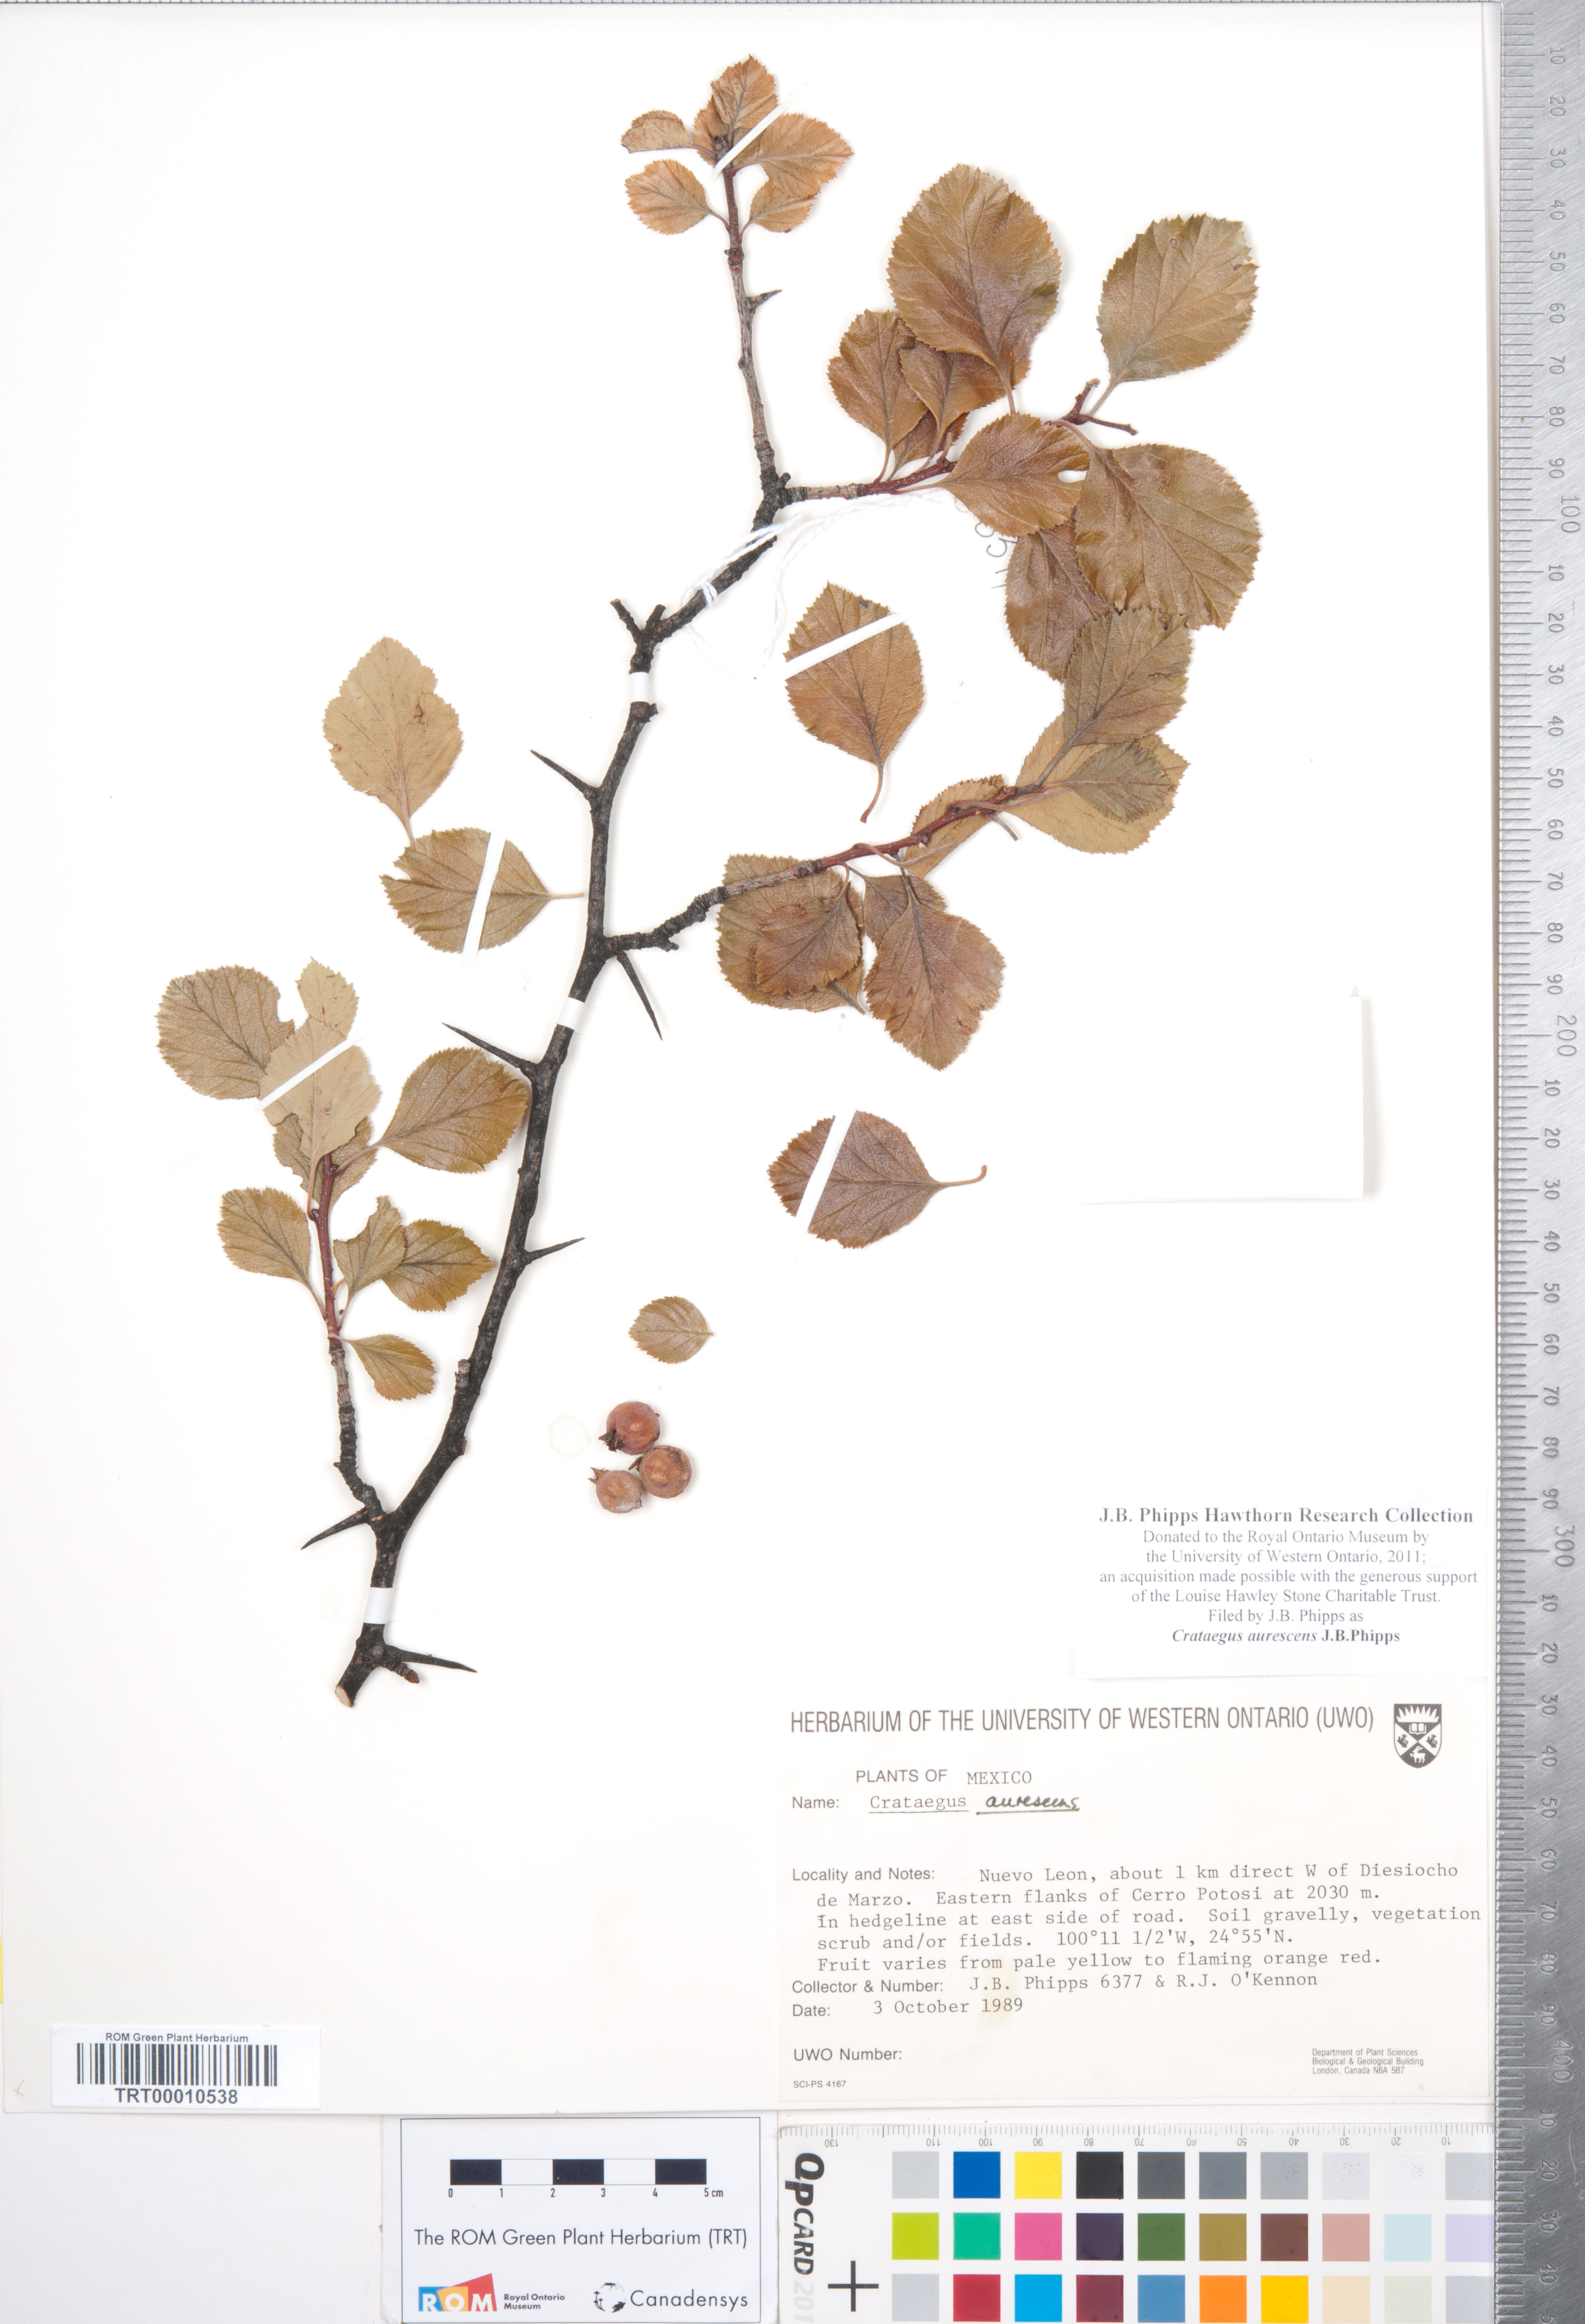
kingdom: Plantae
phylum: Tracheophyta
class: Magnoliopsida
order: Rosales
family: Rosaceae
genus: Crataegus
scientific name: Crataegus aurescens
